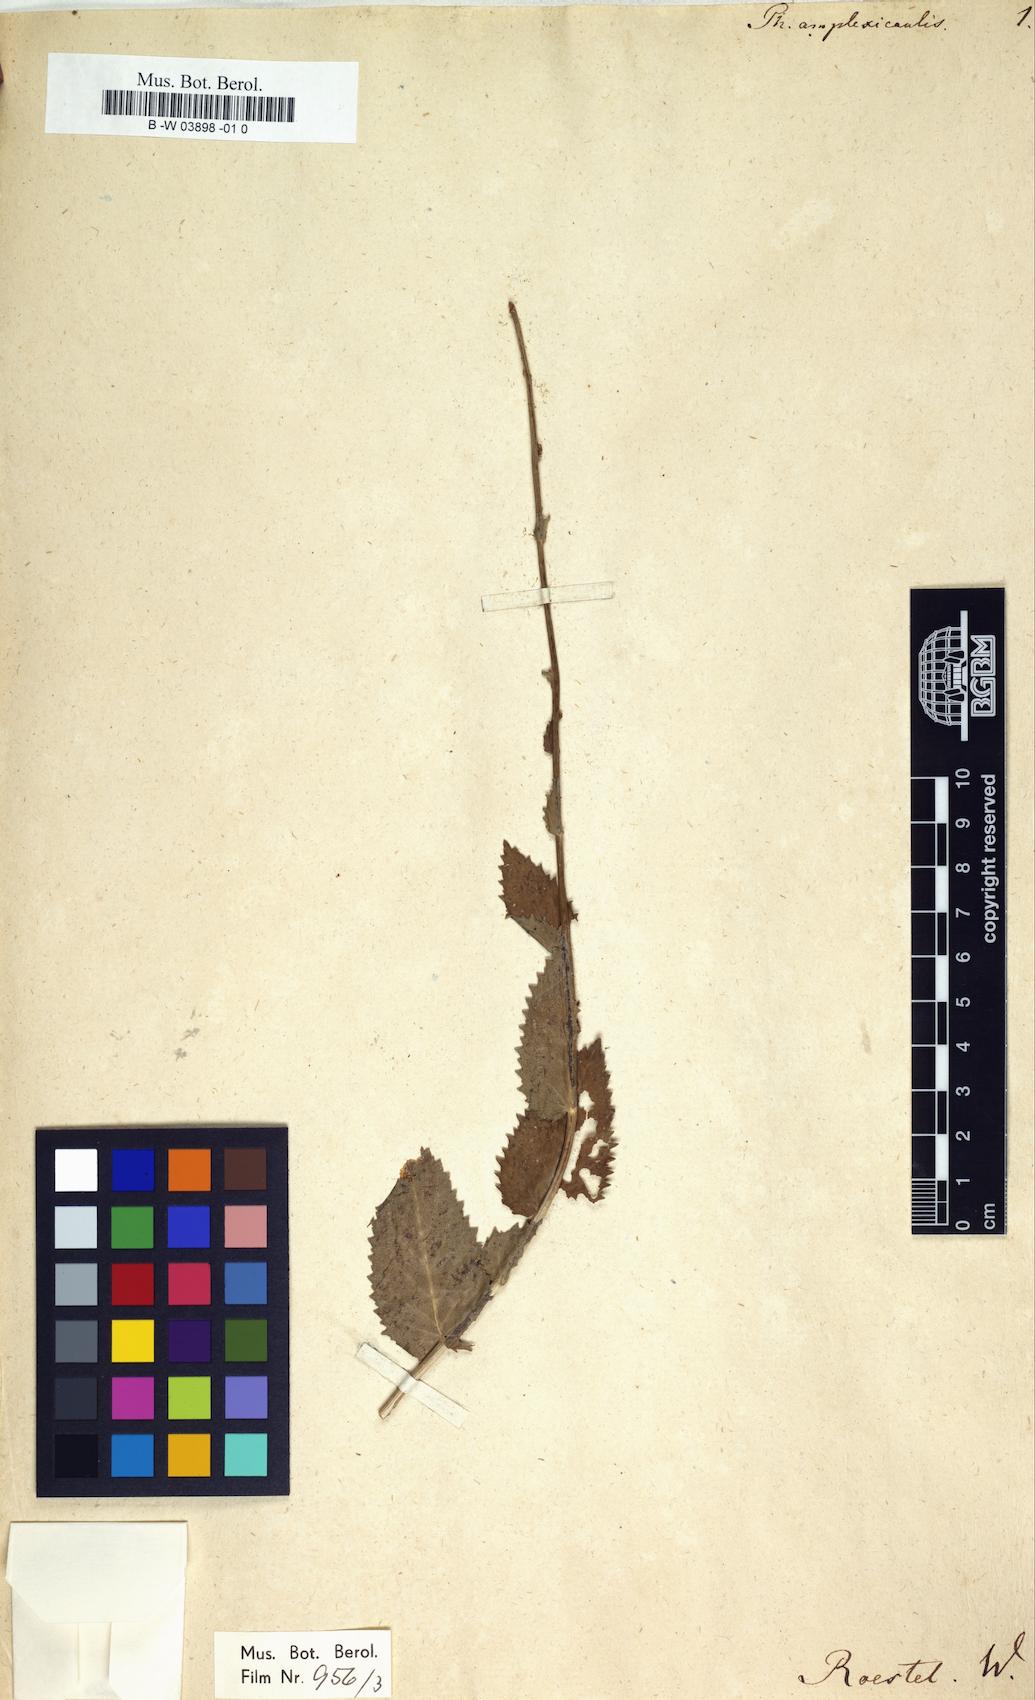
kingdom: Plantae
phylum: Tracheophyta
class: Magnoliopsida
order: Asterales
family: Campanulaceae
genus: Asyneuma
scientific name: Asyneuma amplexicaule
